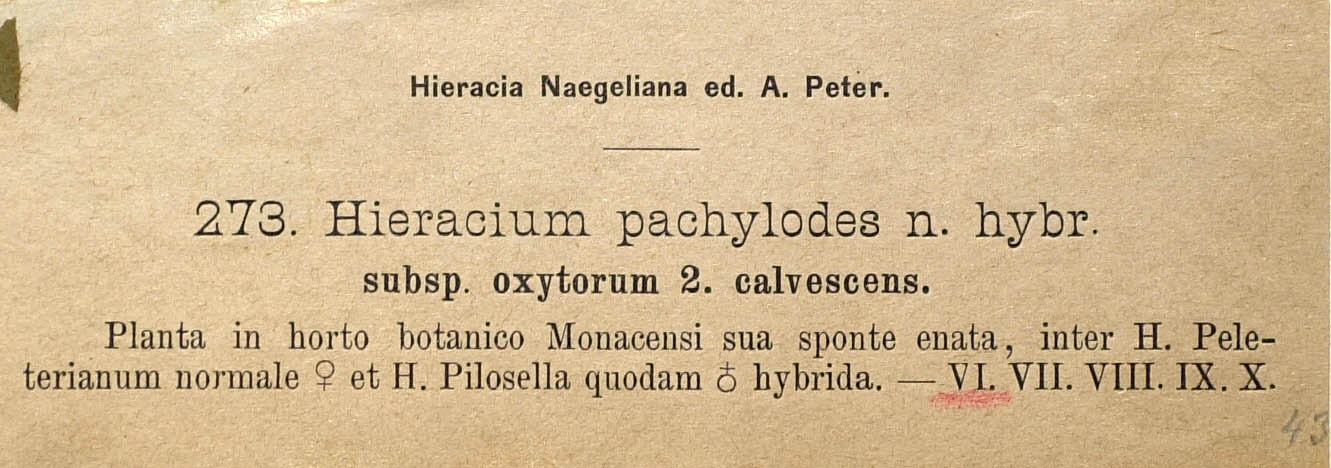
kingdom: Plantae
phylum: Tracheophyta
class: Magnoliopsida
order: Asterales
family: Asteraceae
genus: Pilosella
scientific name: Pilosella longisquama
